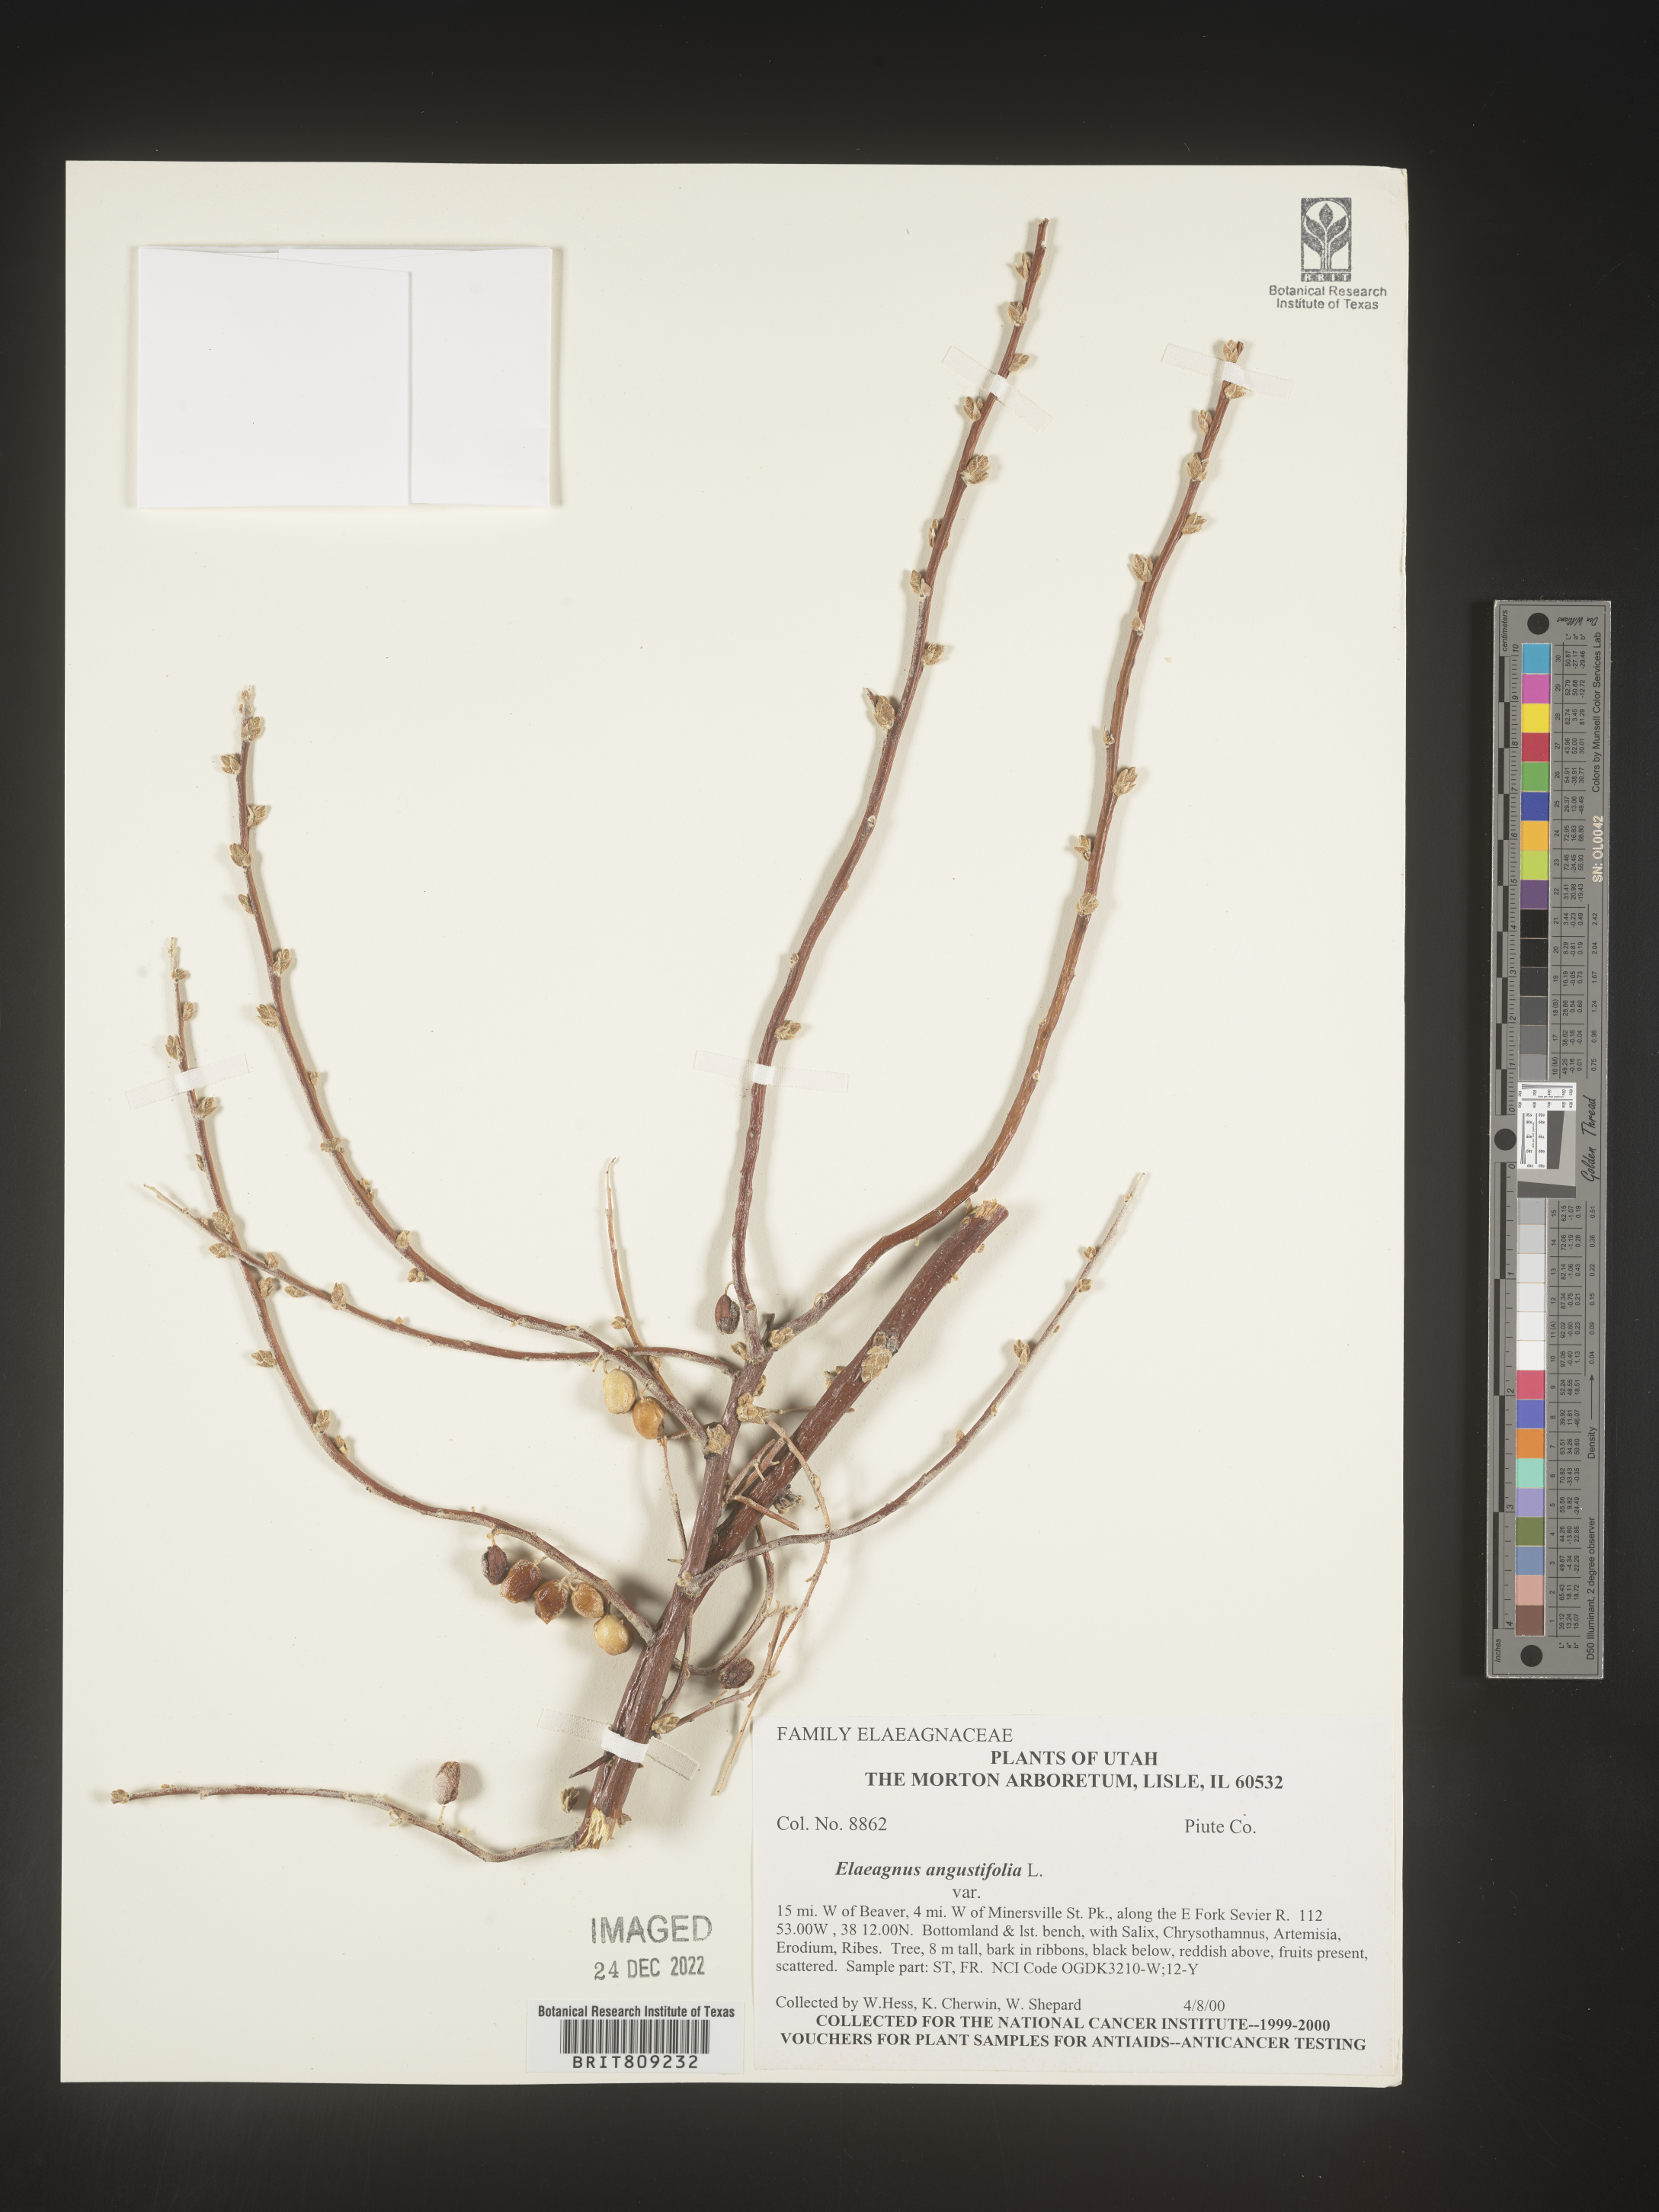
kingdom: Plantae
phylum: Tracheophyta
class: Magnoliopsida
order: Rosales
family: Elaeagnaceae
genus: Elaeagnus
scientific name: Elaeagnus angustifolia
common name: Russian olive
